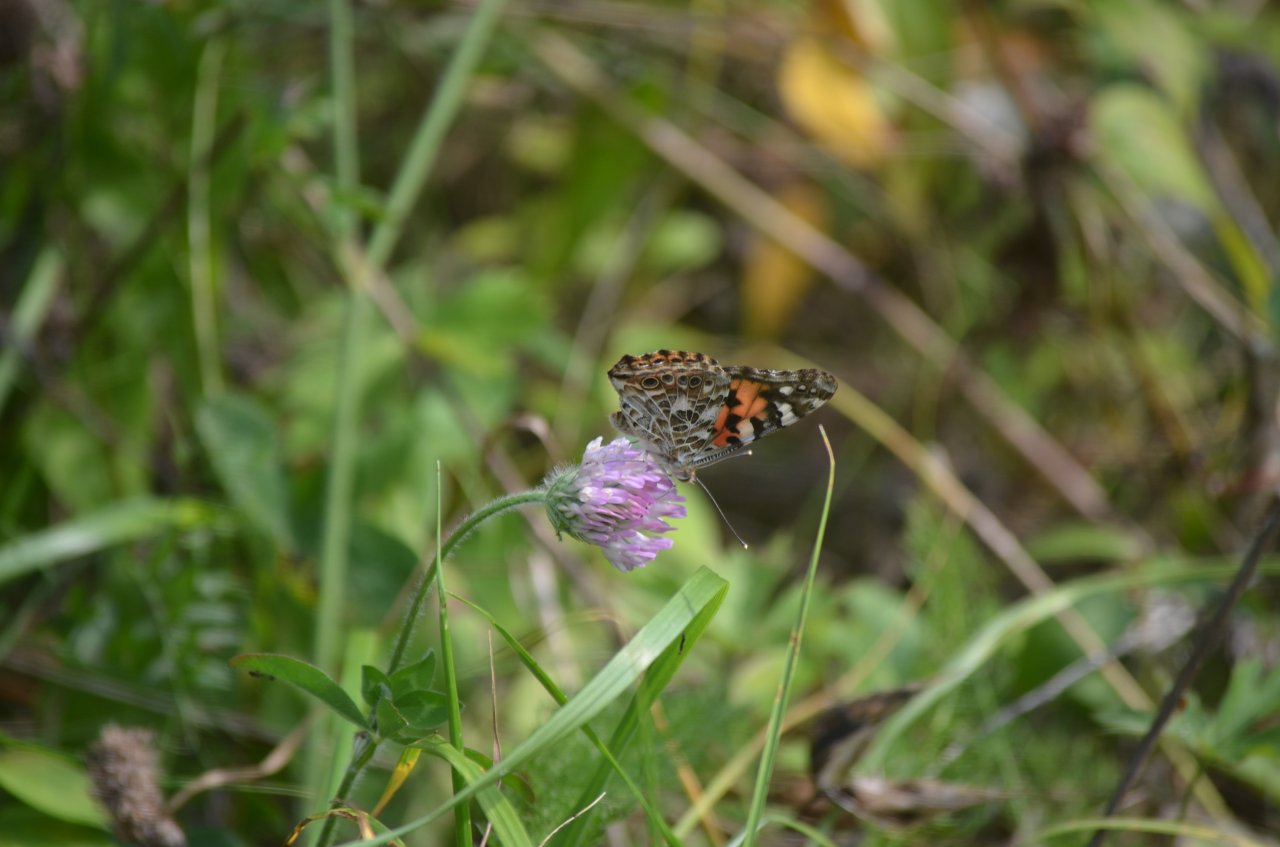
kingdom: Animalia
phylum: Arthropoda
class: Insecta
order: Lepidoptera
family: Nymphalidae
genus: Vanessa
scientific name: Vanessa cardui
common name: Painted Lady
